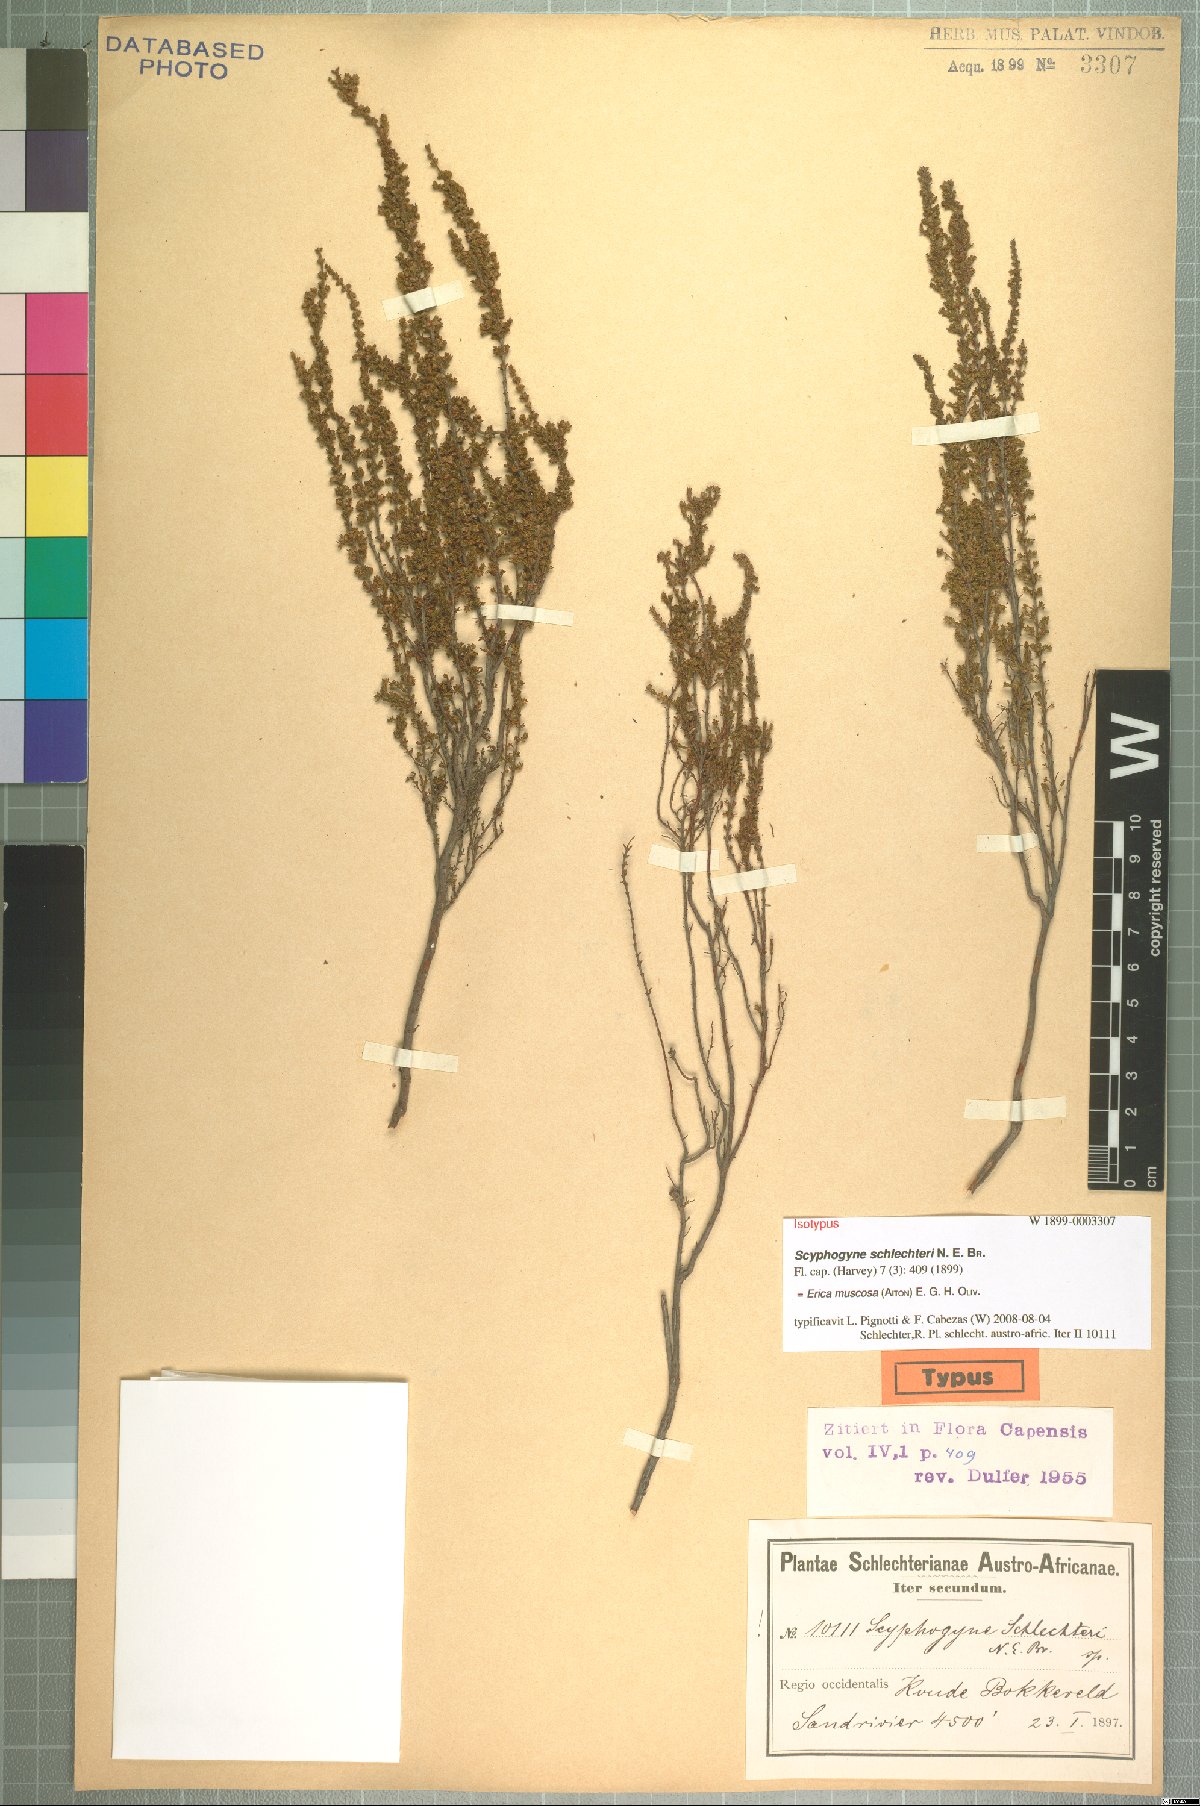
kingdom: Plantae
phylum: Tracheophyta
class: Magnoliopsida
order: Ericales
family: Ericaceae
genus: Erica
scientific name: Erica muscosa
